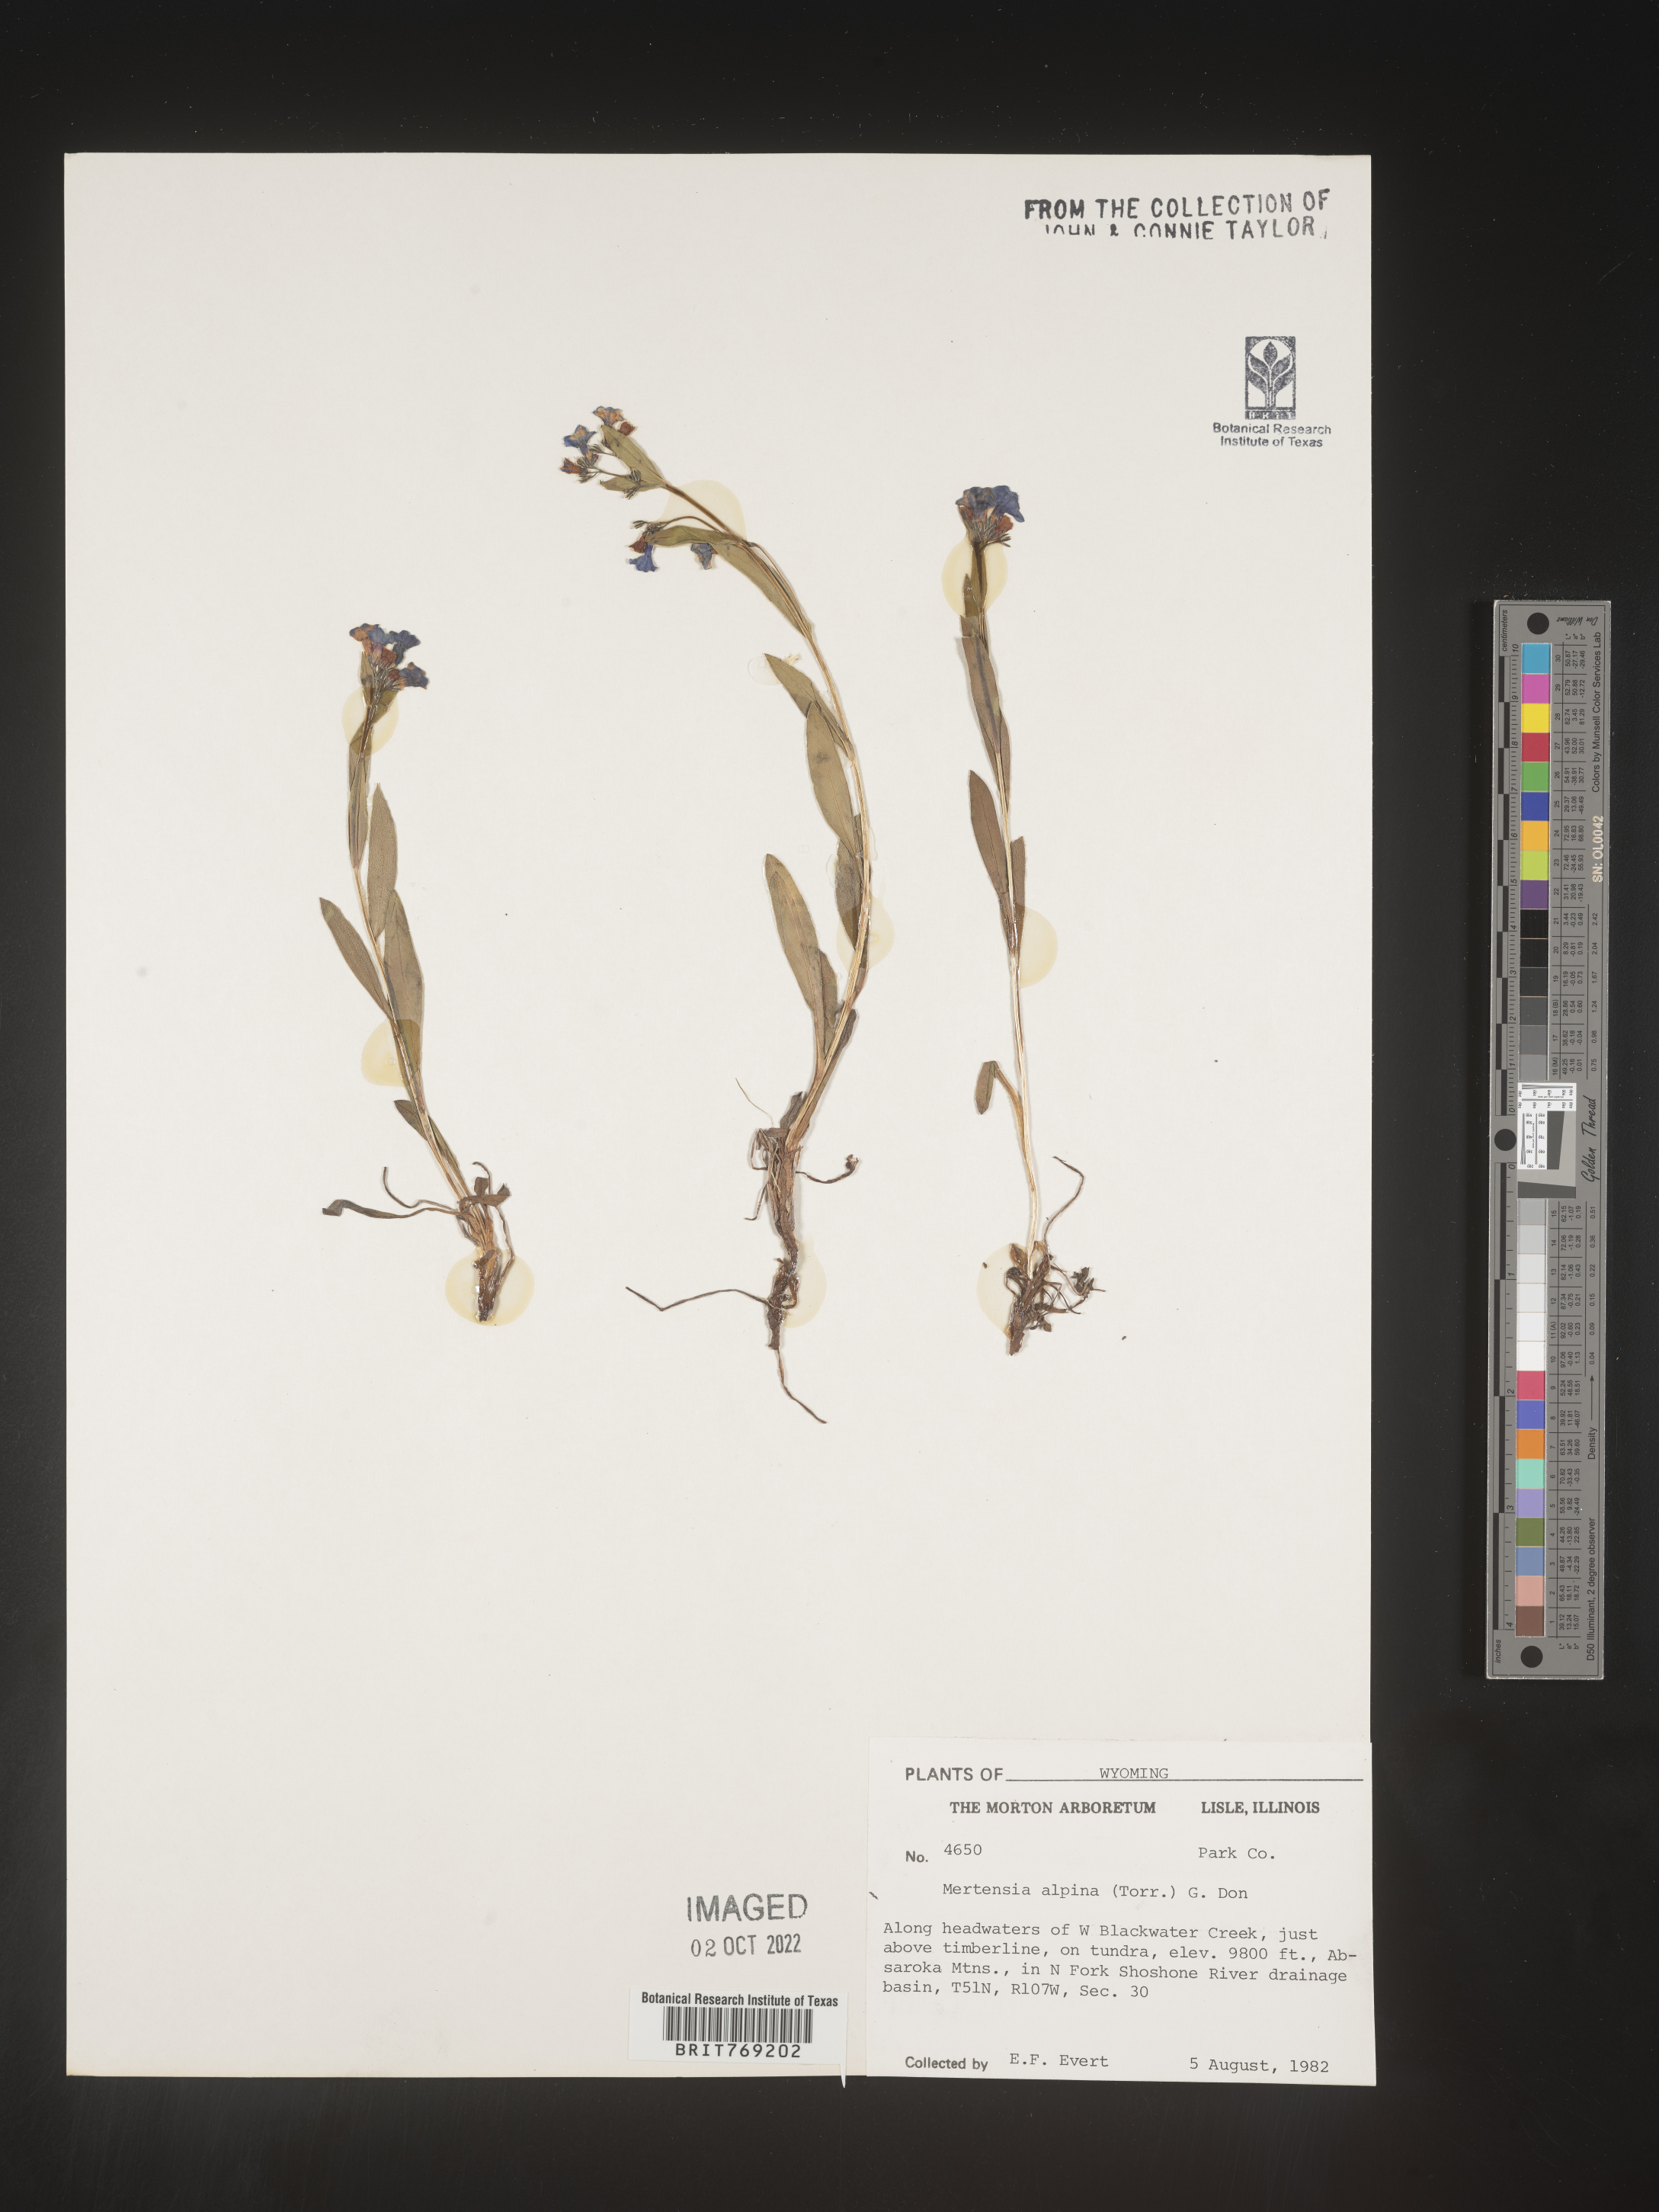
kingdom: Plantae
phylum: Tracheophyta
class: Magnoliopsida
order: Boraginales
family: Boraginaceae
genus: Mertensia
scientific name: Mertensia
